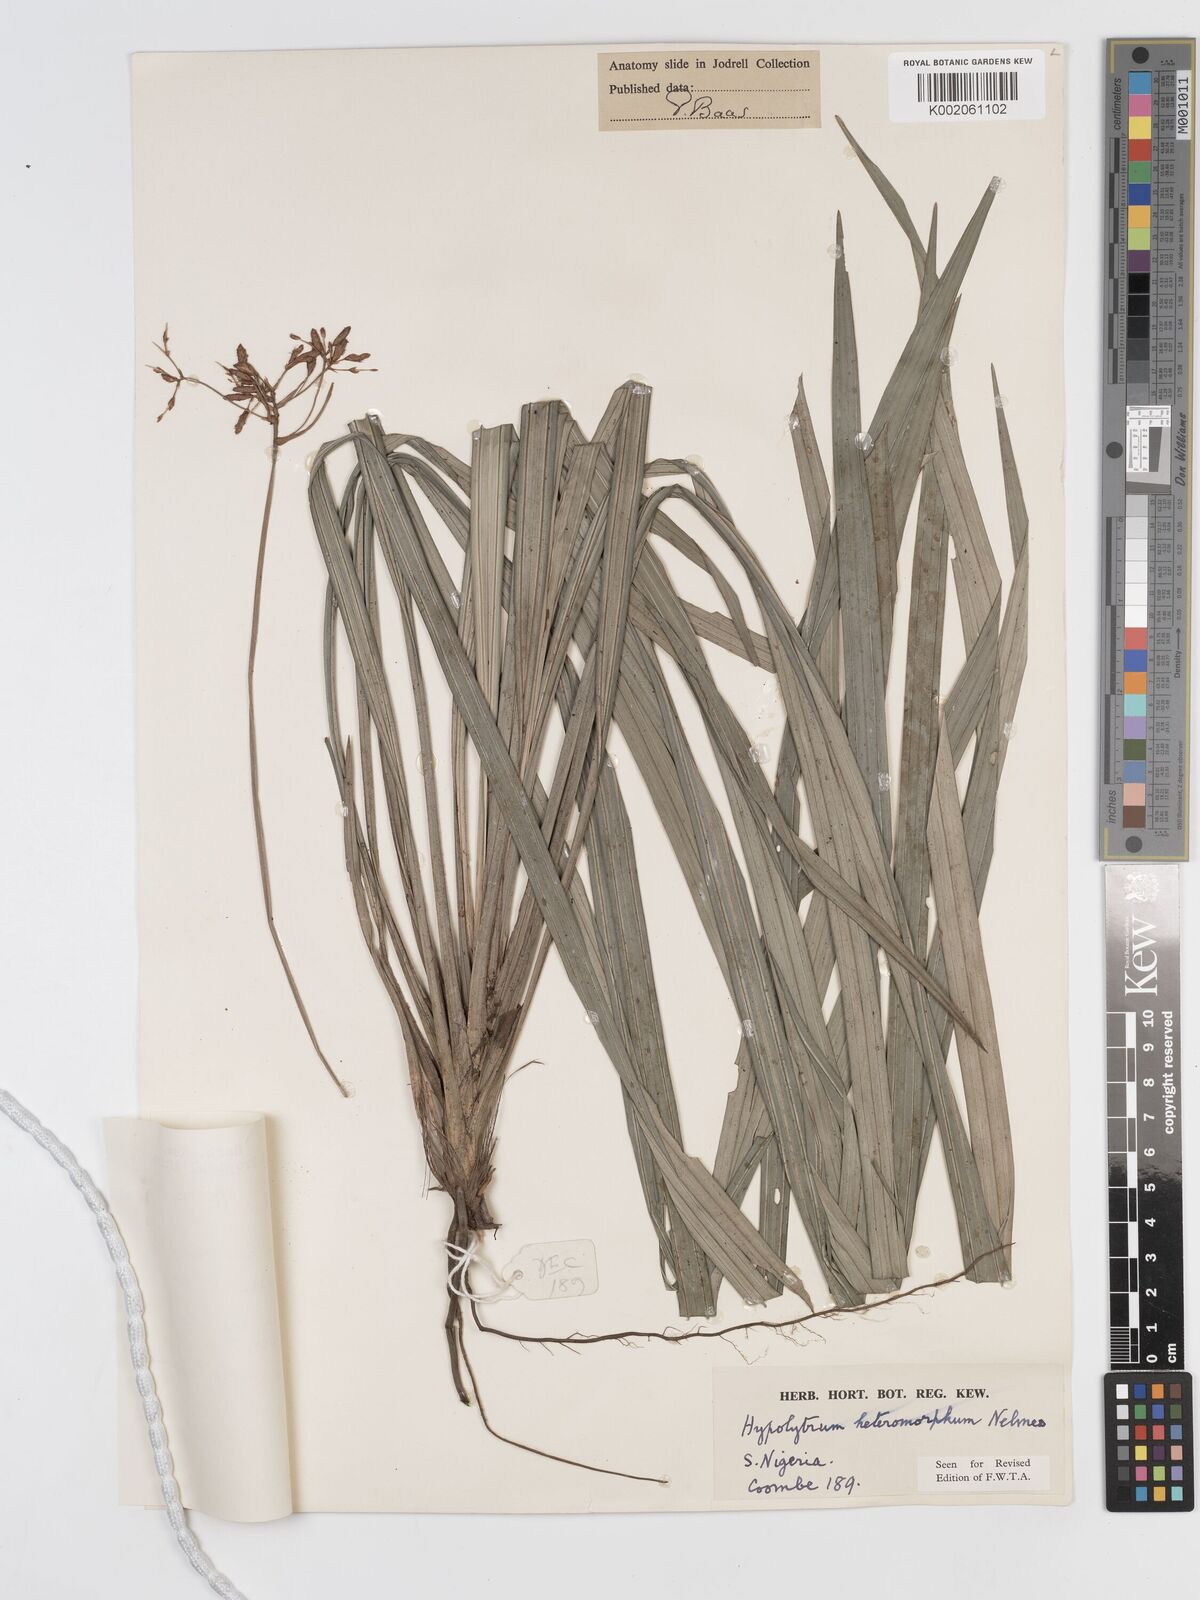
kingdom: Plantae
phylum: Tracheophyta
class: Liliopsida
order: Poales
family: Cyperaceae
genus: Hypolytrum
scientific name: Hypolytrum heteromorphum
